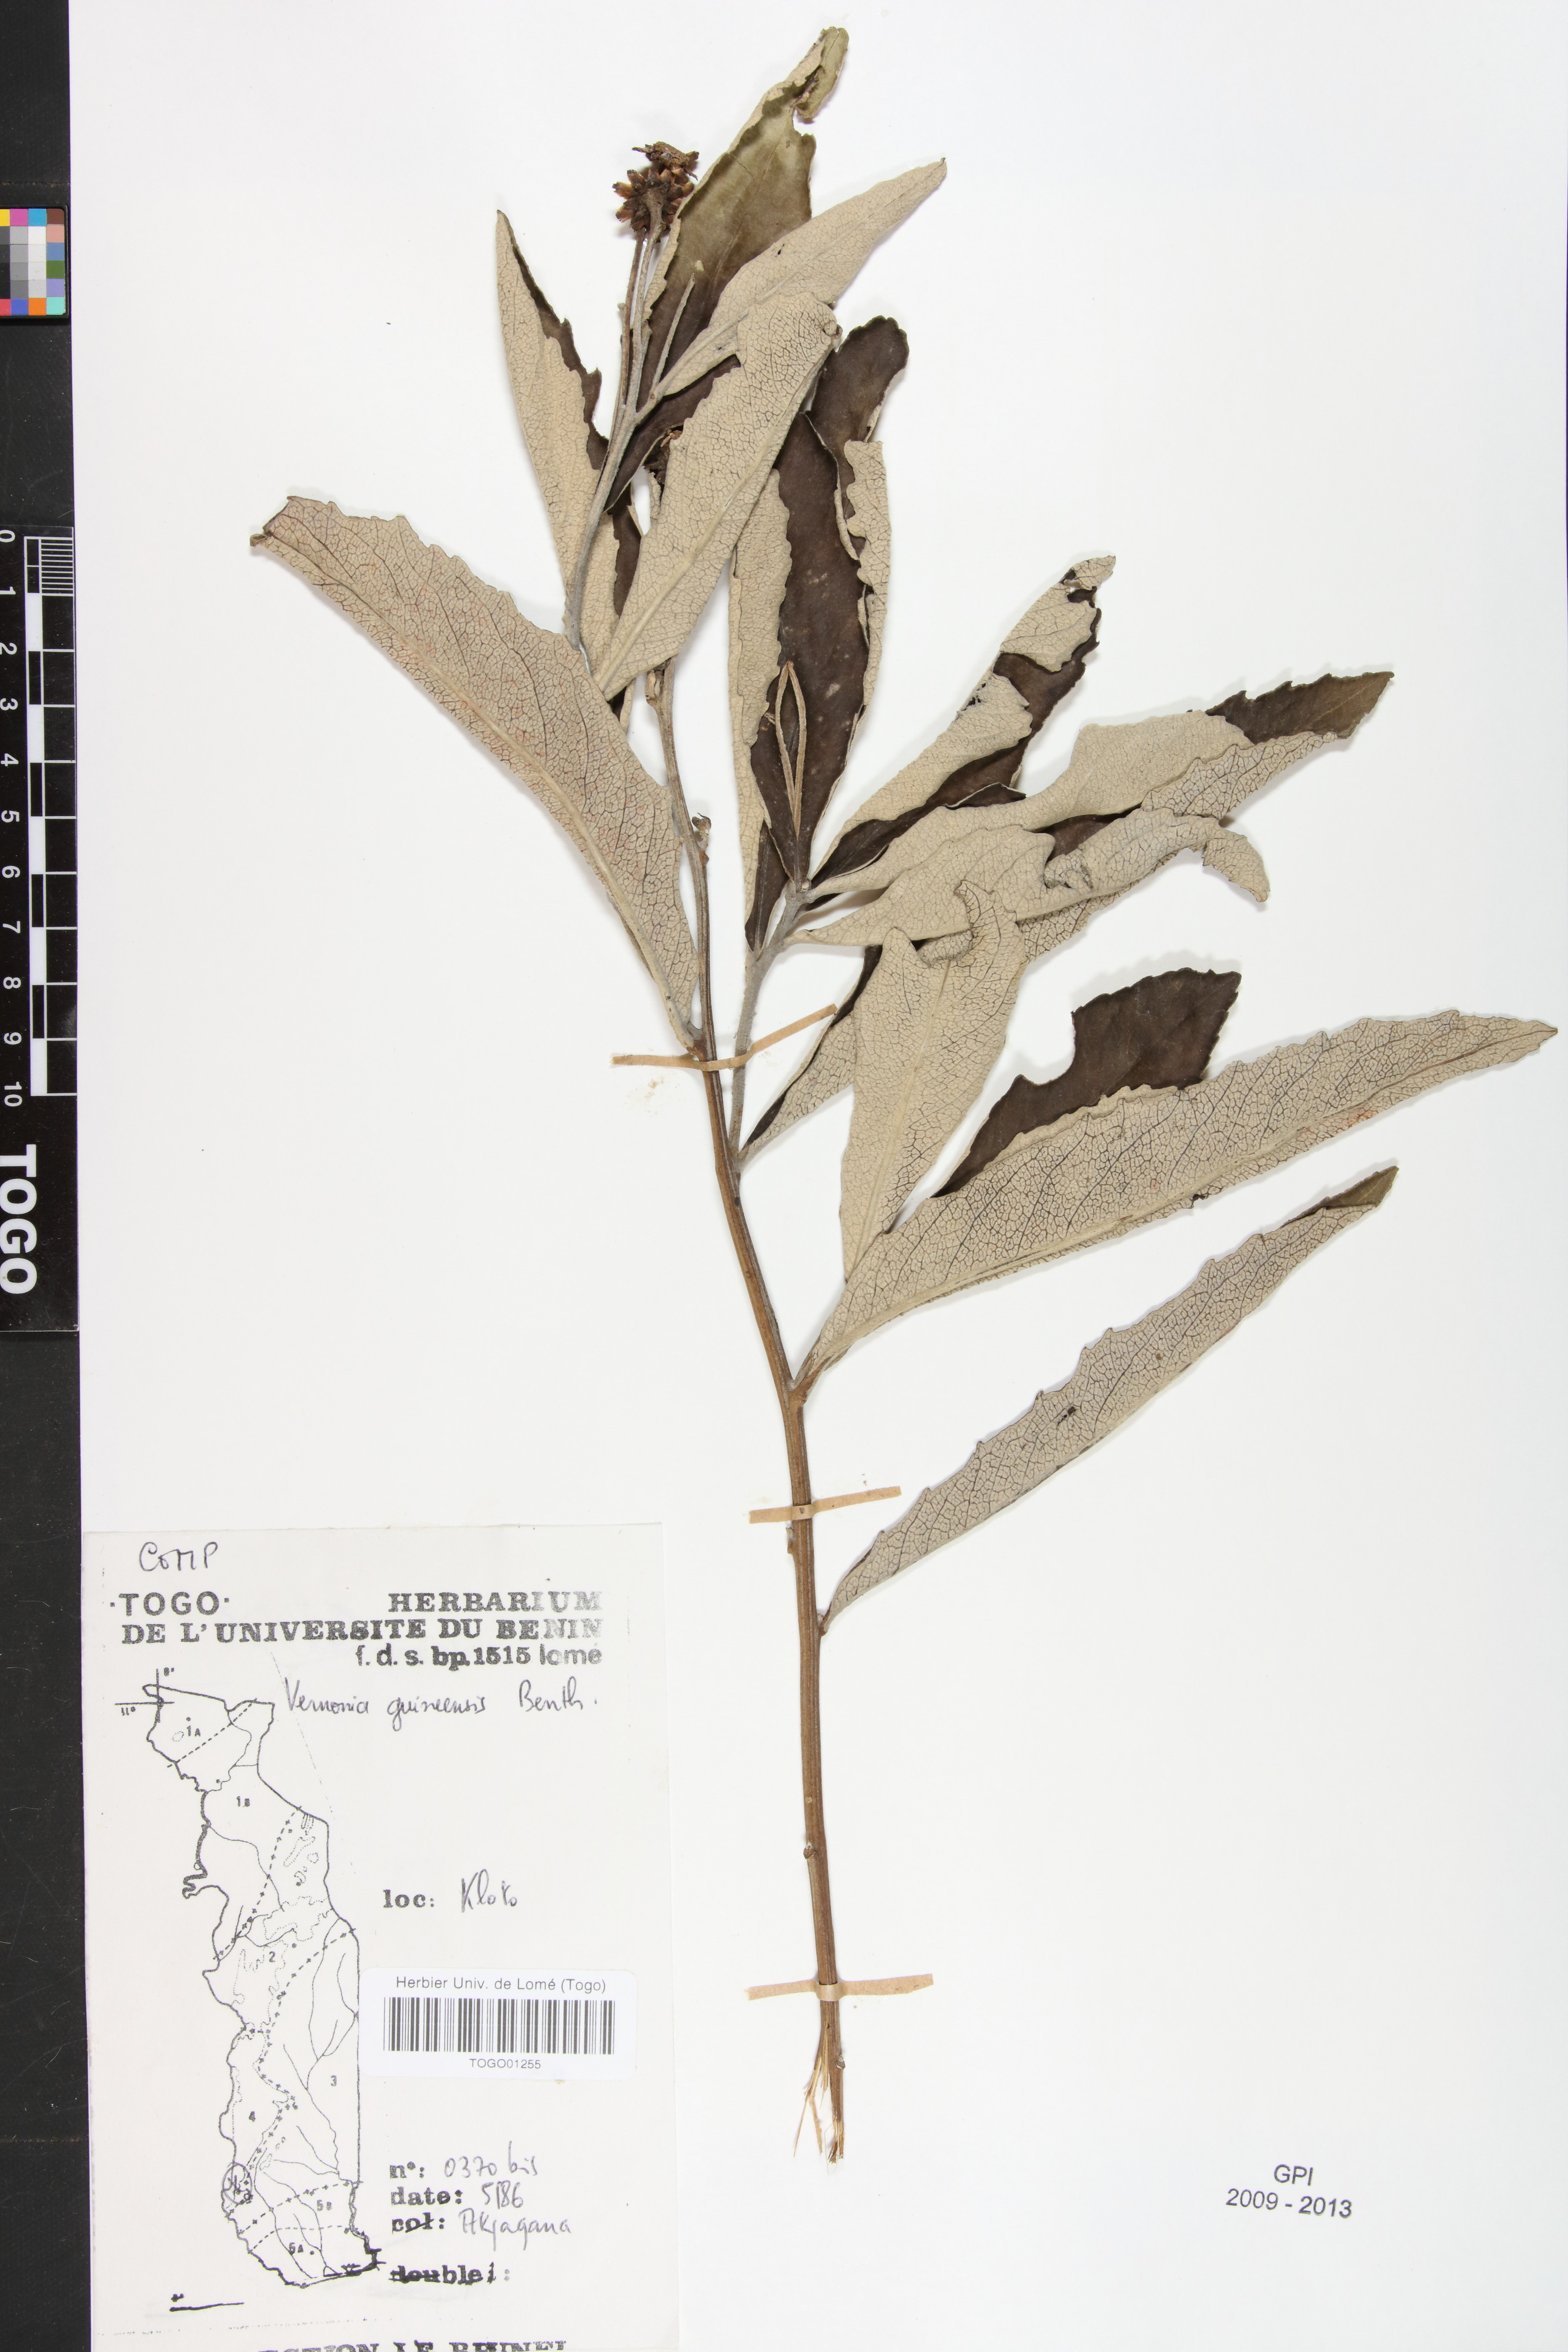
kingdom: Plantae
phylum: Tracheophyta
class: Magnoliopsida
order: Asterales
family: Asteraceae
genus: Baccharoides
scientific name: Baccharoides guineensis
